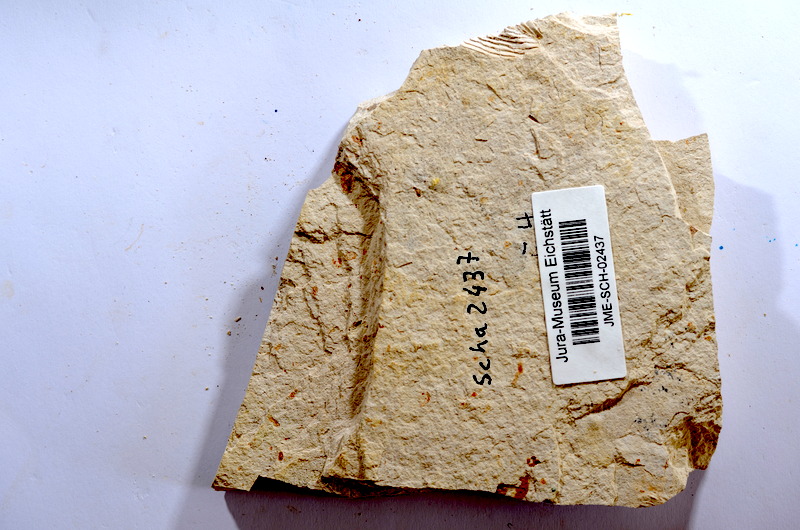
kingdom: Animalia
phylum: Chordata
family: Ascalaboidae
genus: Tharsis
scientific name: Tharsis dubius
